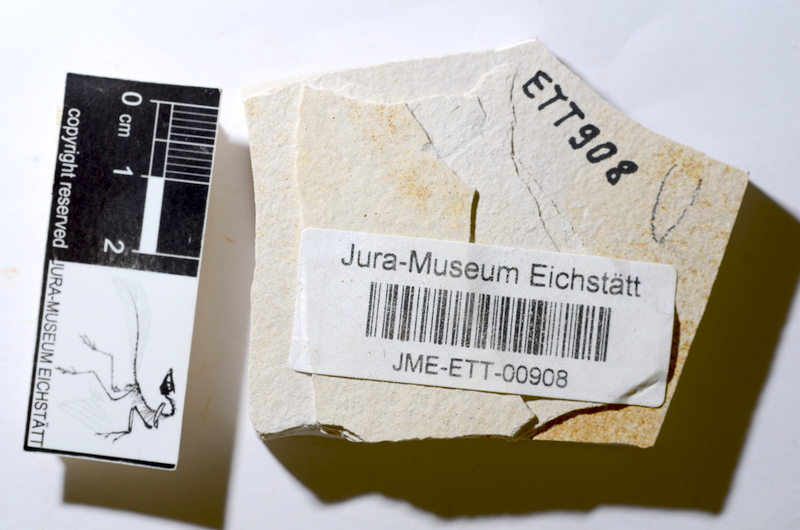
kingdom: Animalia
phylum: Chordata
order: Salmoniformes
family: Orthogonikleithridae
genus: Orthogonikleithrus
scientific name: Orthogonikleithrus hoelli
